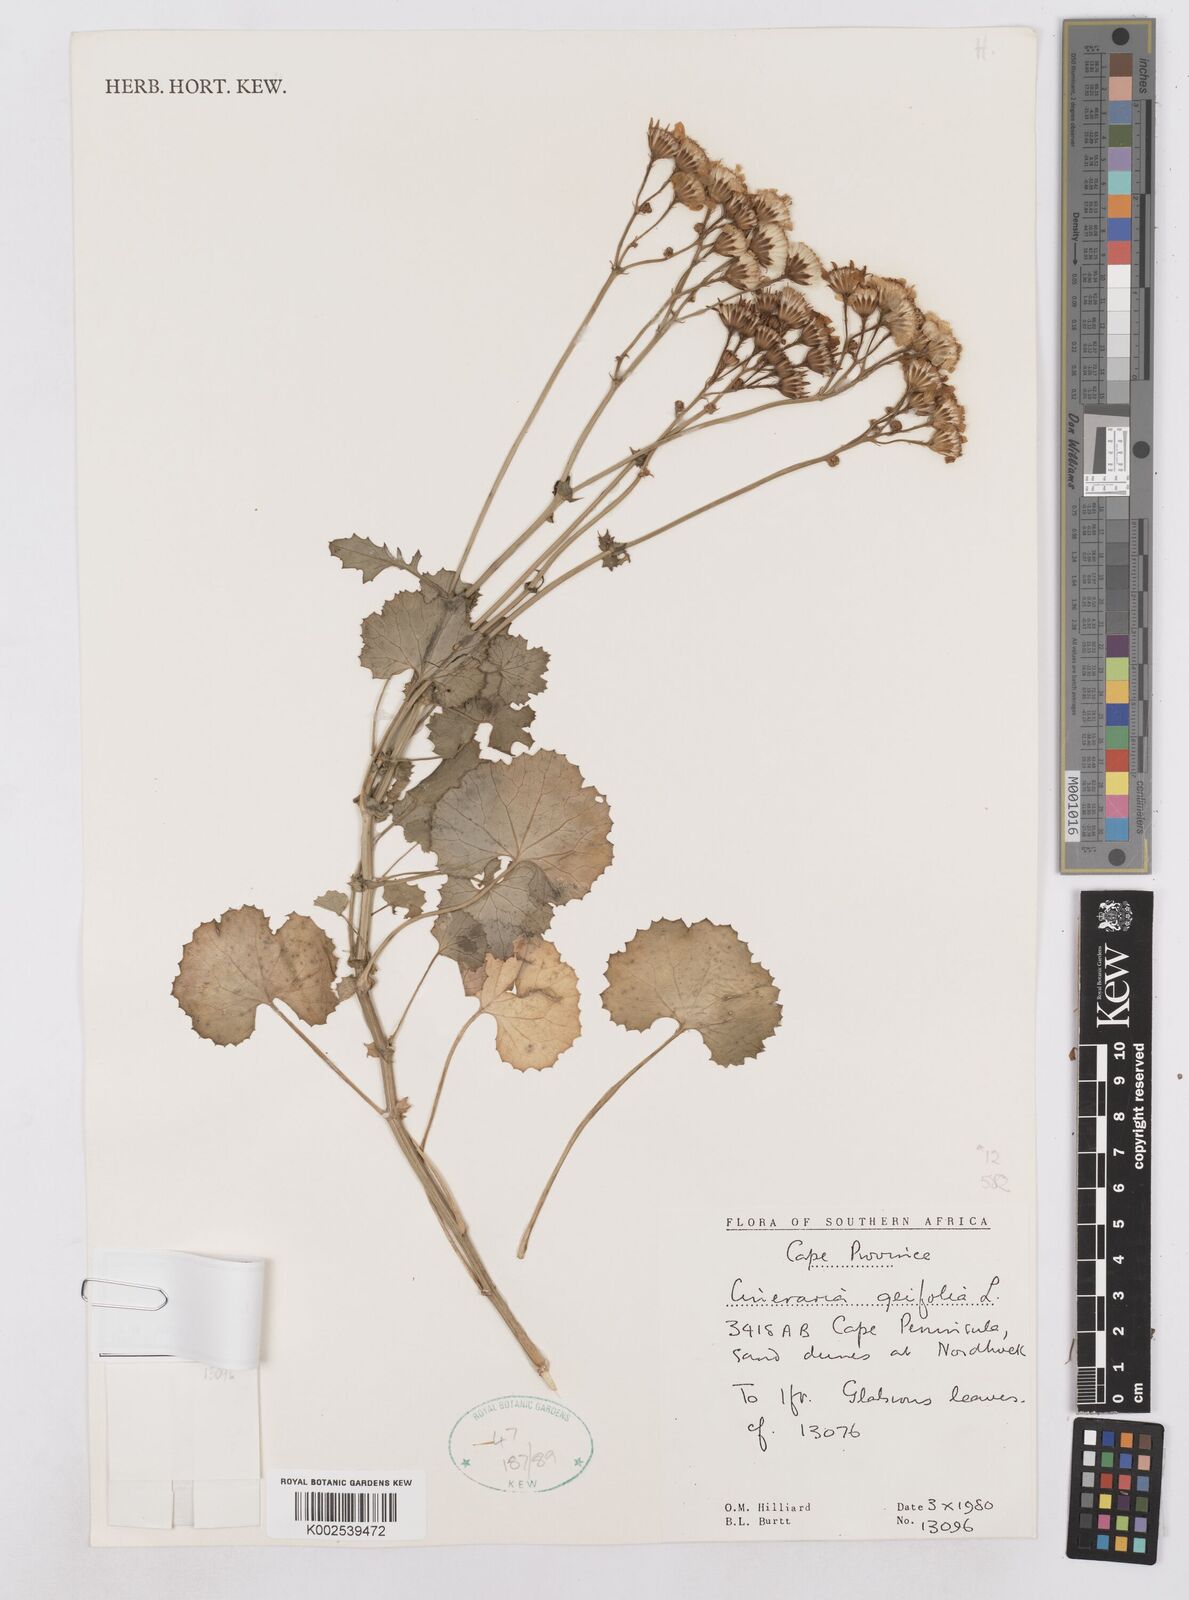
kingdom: Plantae
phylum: Tracheophyta
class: Magnoliopsida
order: Asterales
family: Asteraceae
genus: Cineraria
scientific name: Cineraria geifolia
